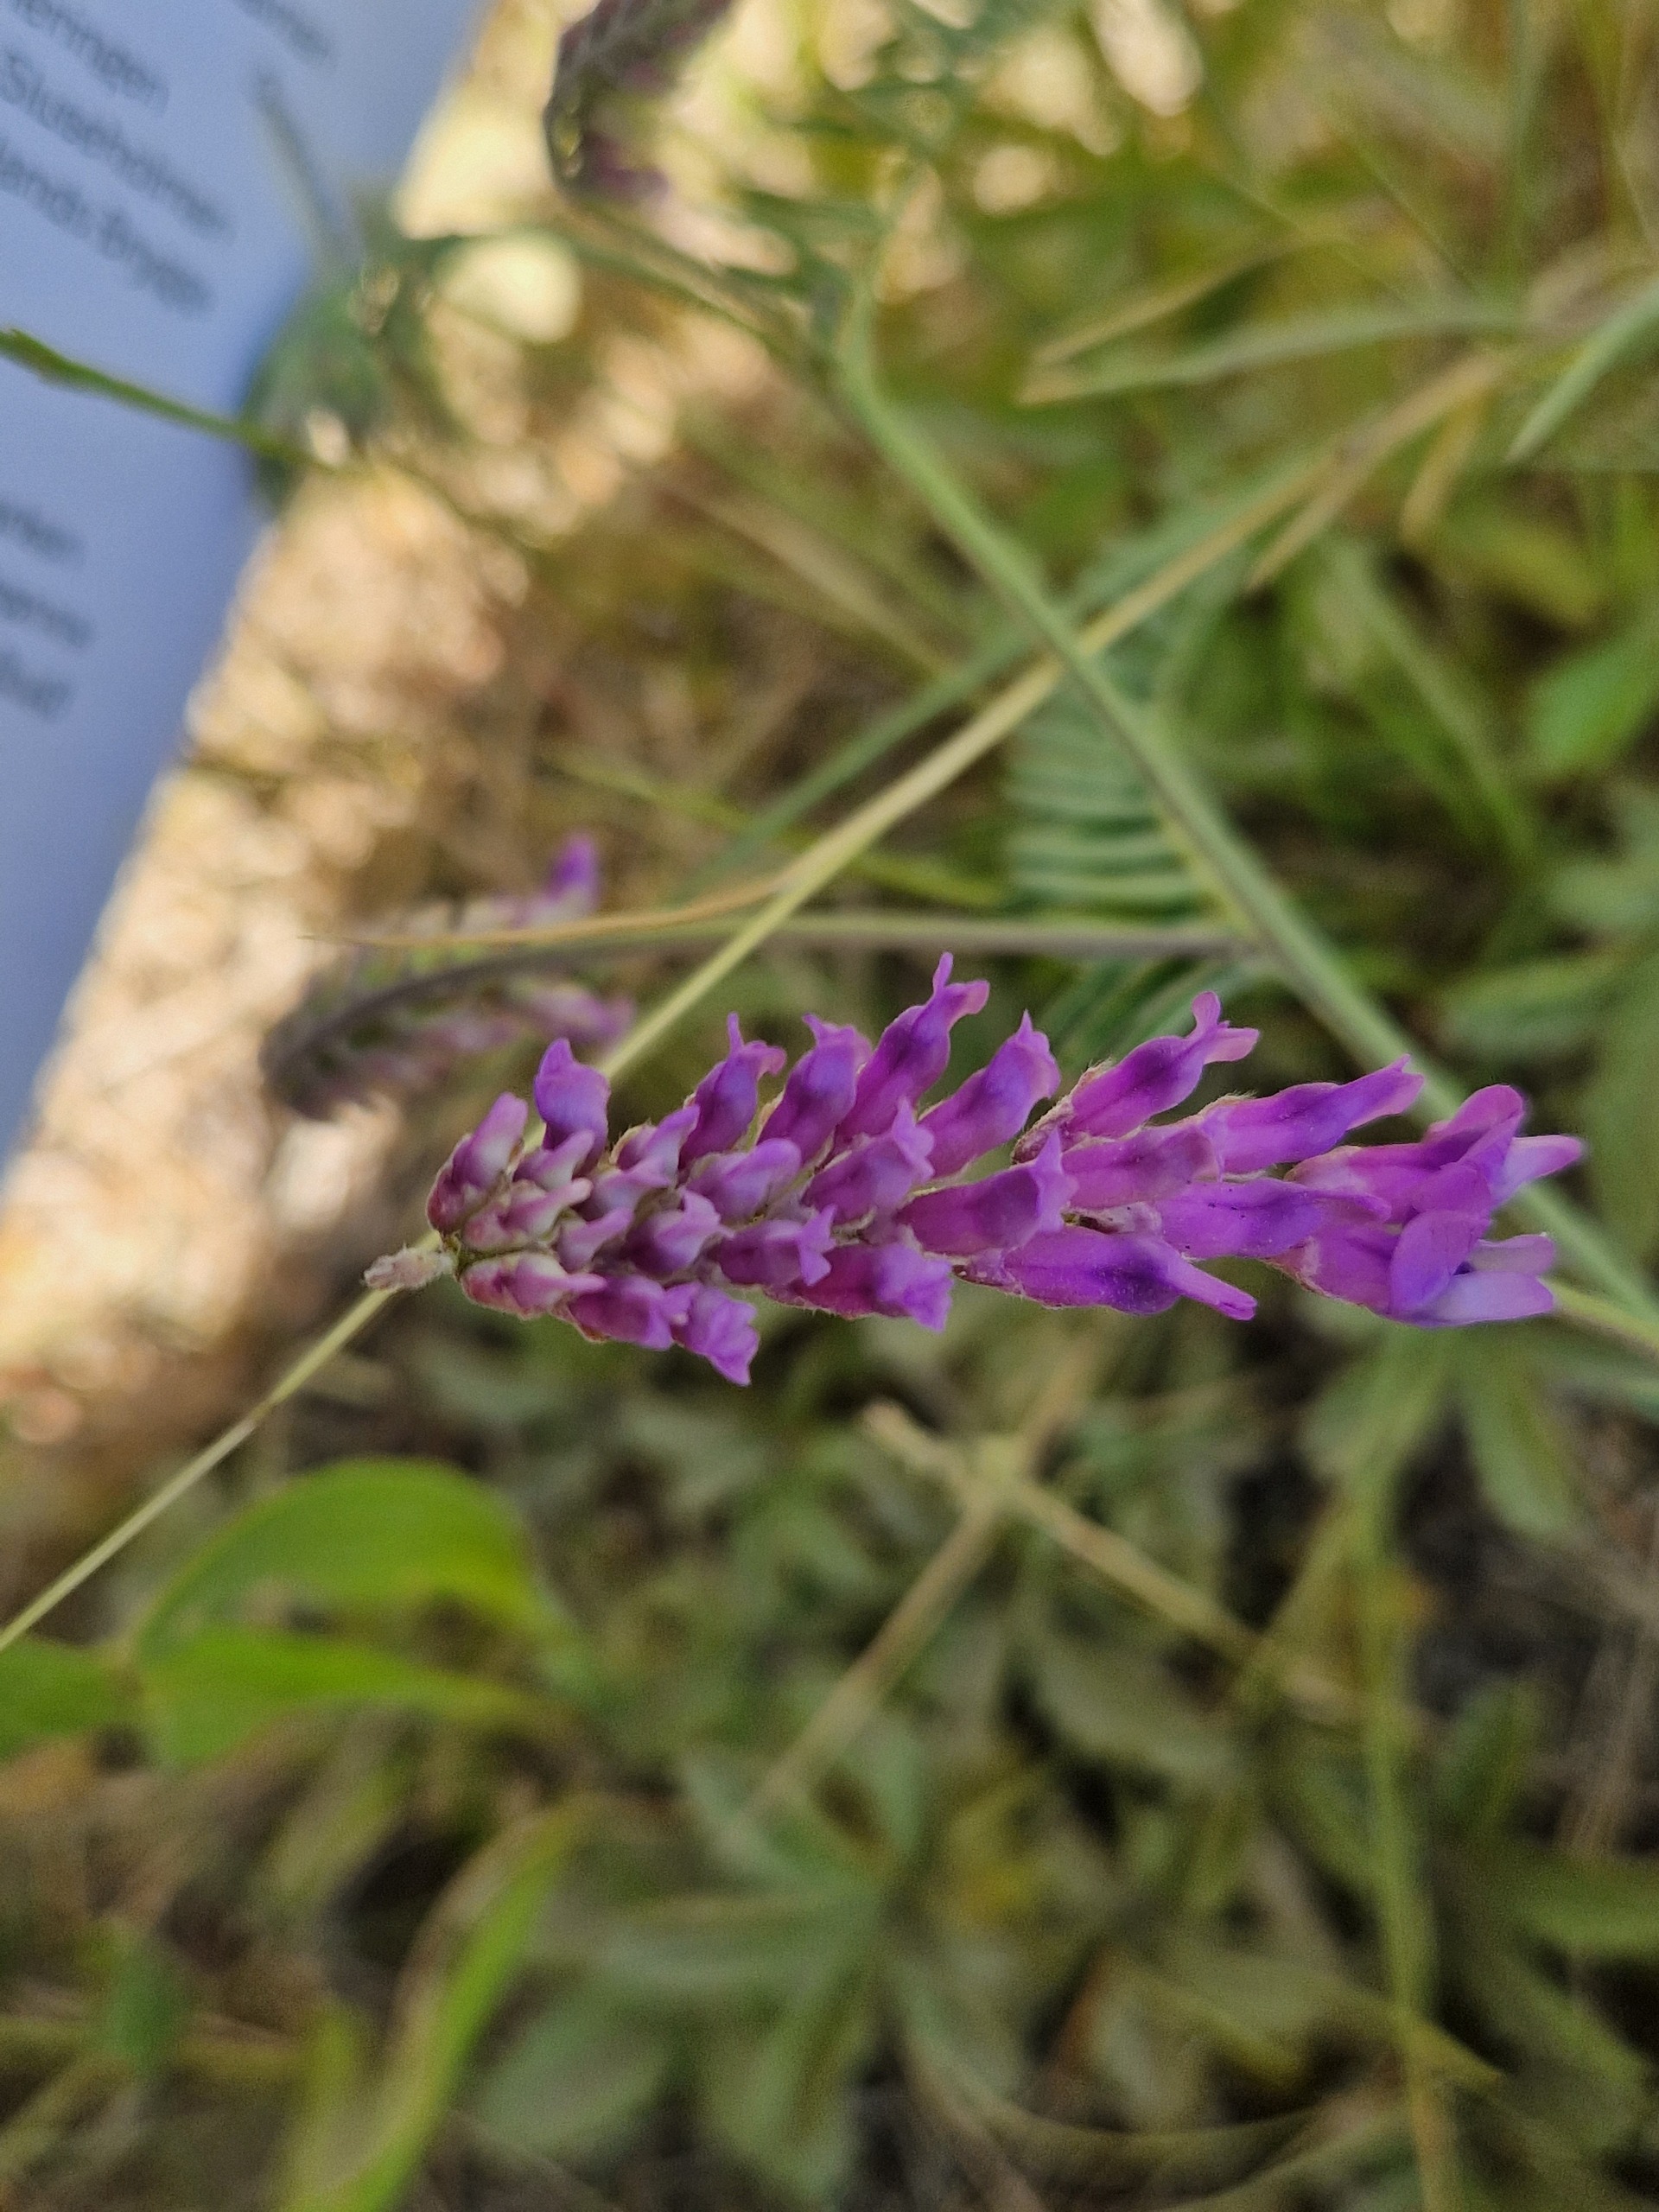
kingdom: Plantae
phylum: Tracheophyta
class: Magnoliopsida
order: Fabales
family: Fabaceae
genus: Vicia
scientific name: Vicia cracca
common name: Muse-vikke
